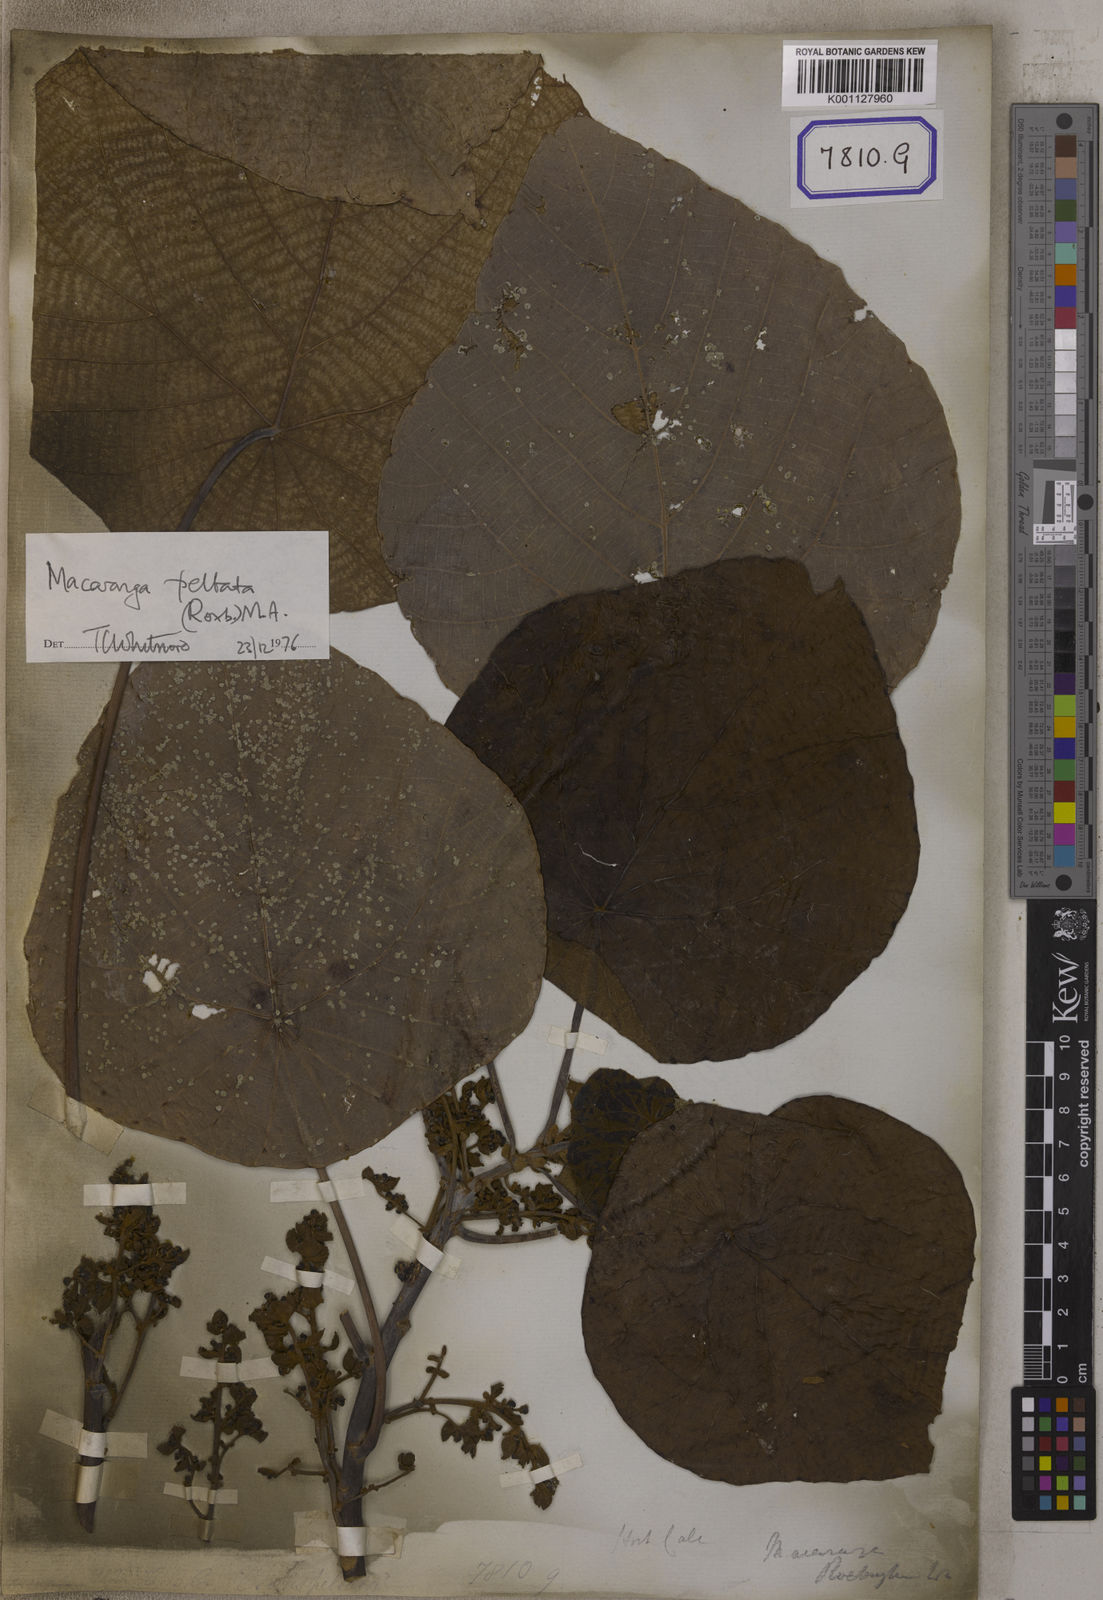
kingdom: Plantae
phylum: Tracheophyta
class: Magnoliopsida
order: Malpighiales
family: Euphorbiaceae
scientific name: Euphorbiaceae
